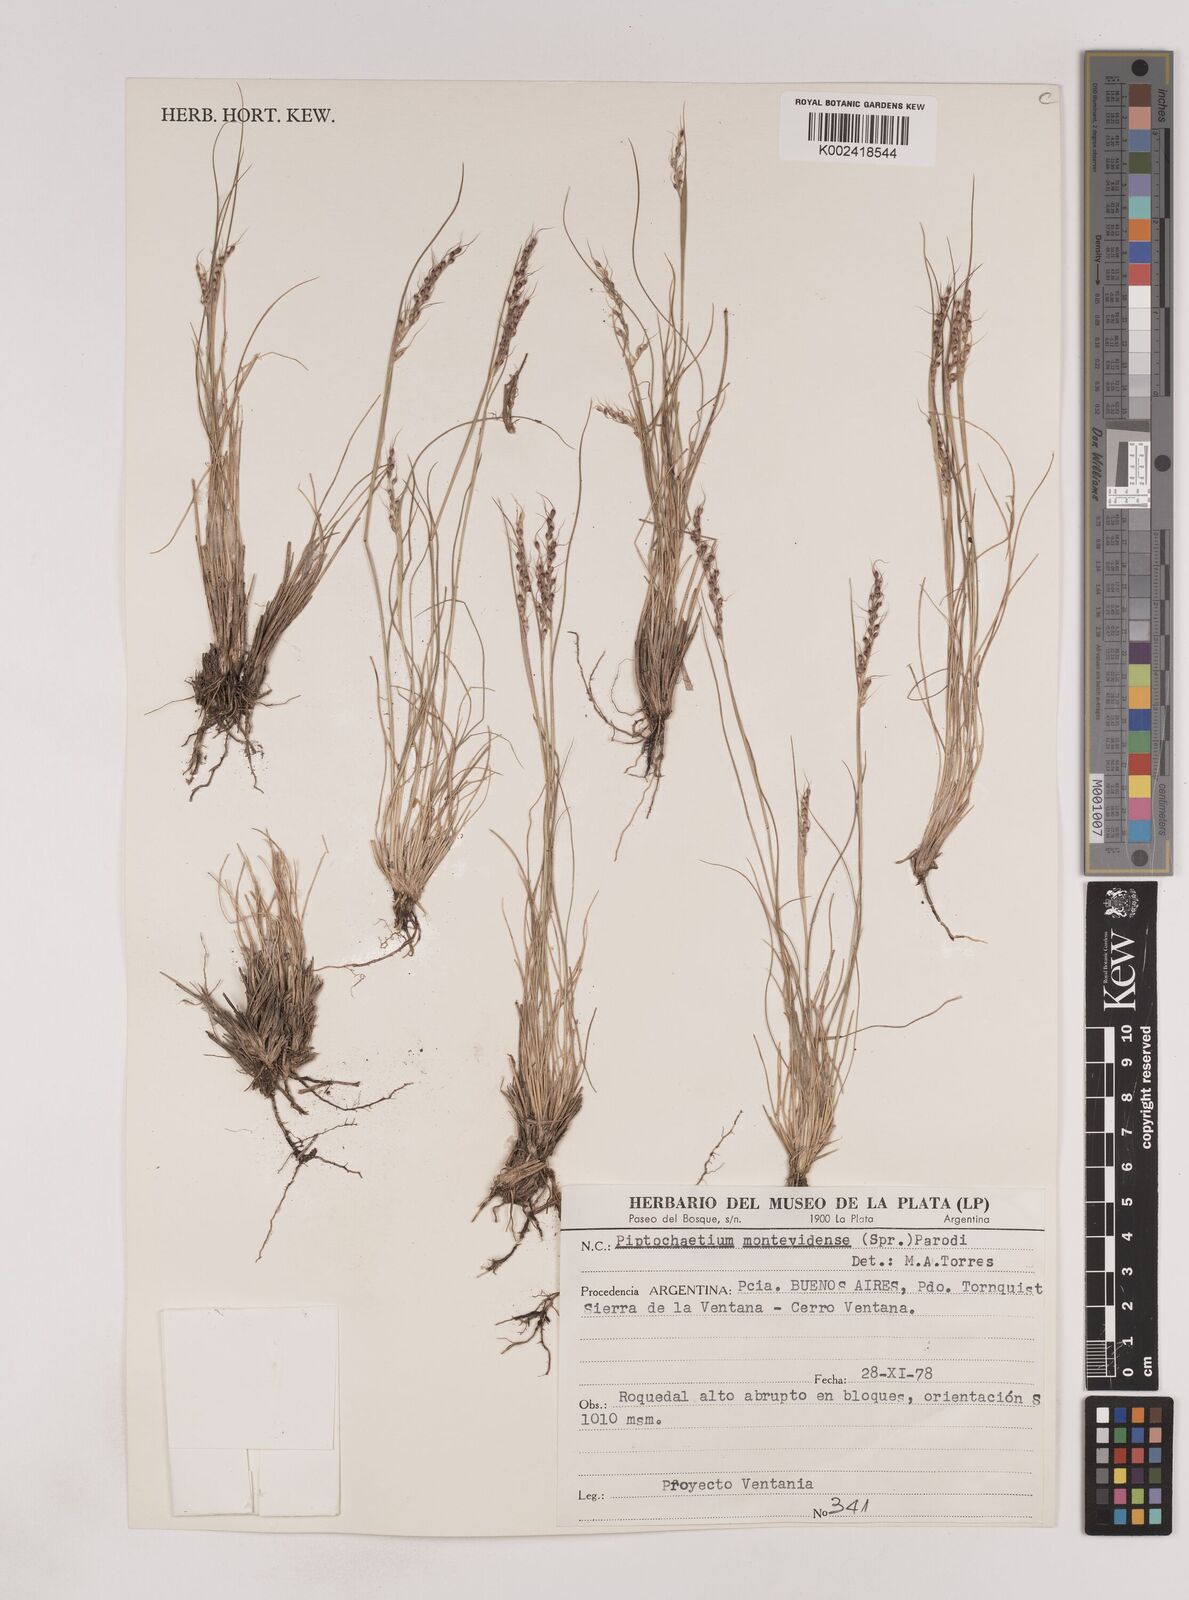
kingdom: Plantae
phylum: Tracheophyta
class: Liliopsida
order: Poales
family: Poaceae
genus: Piptochaetium
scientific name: Piptochaetium montevidense
